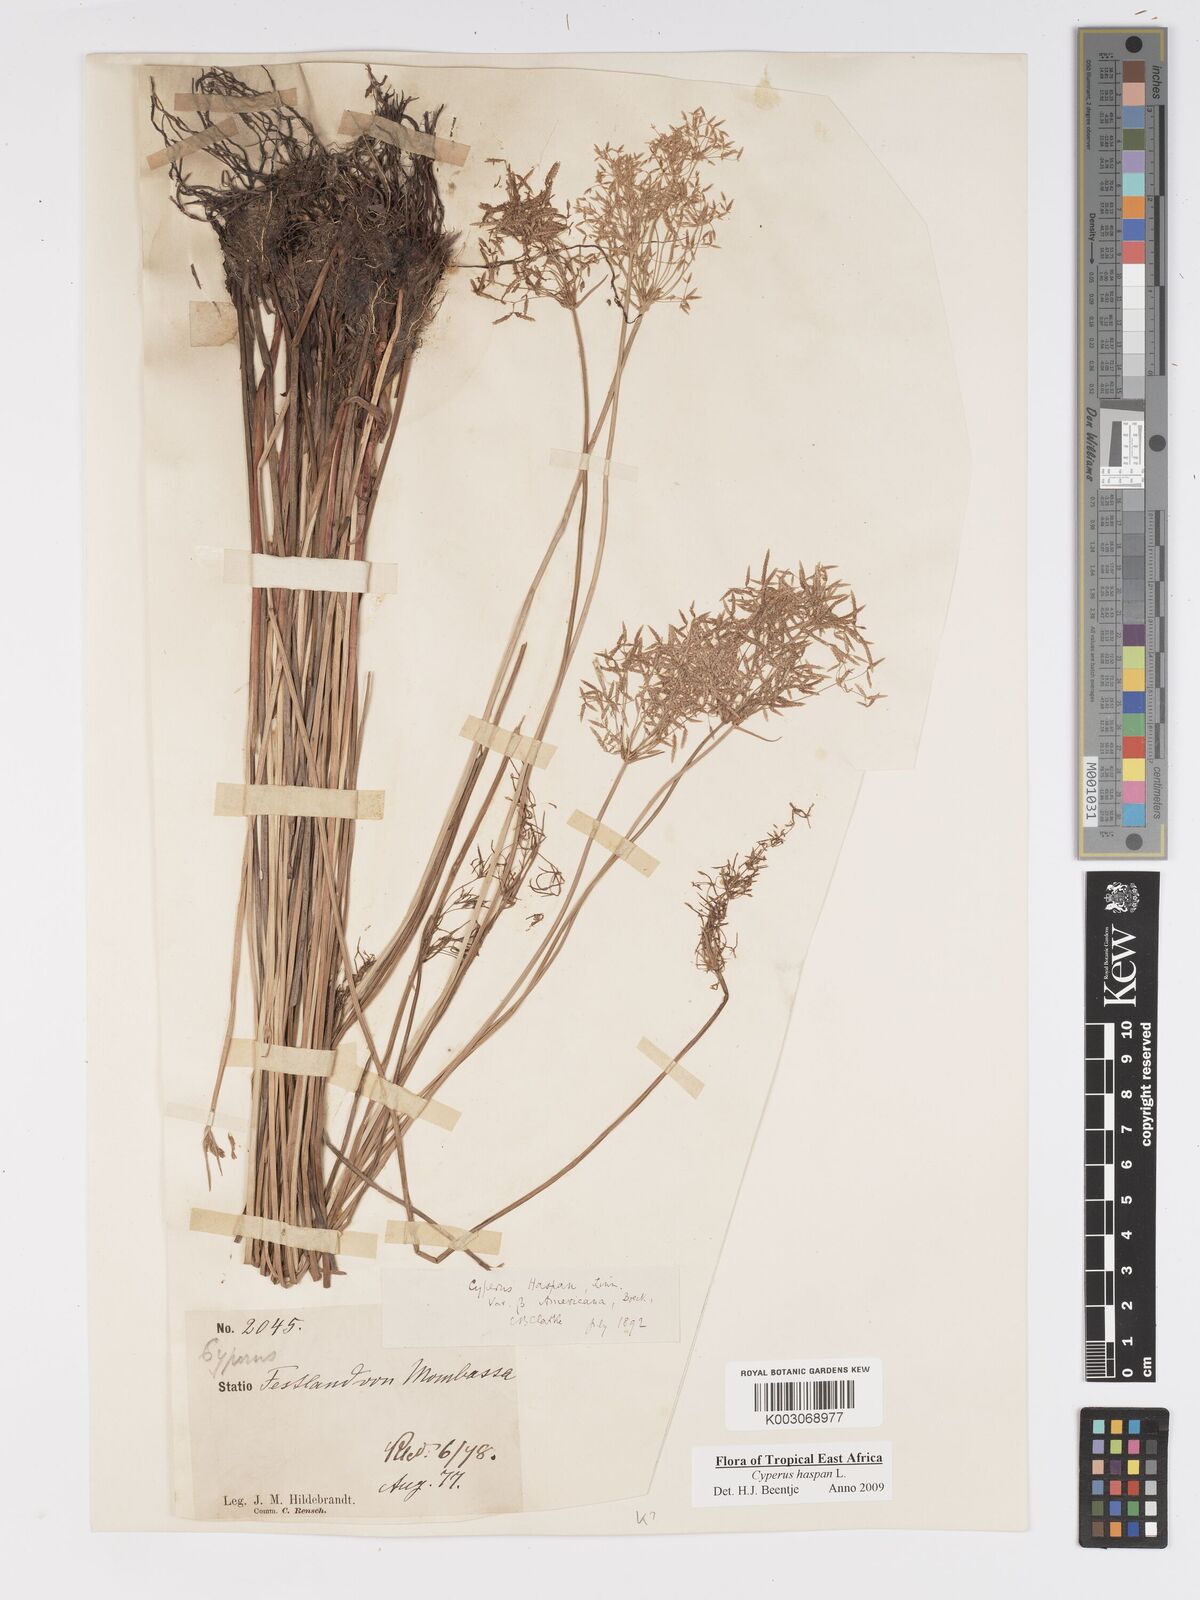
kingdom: Plantae
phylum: Tracheophyta
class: Liliopsida
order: Poales
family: Cyperaceae
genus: Cyperus
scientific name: Cyperus haspan
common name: Haspan flatsedge
